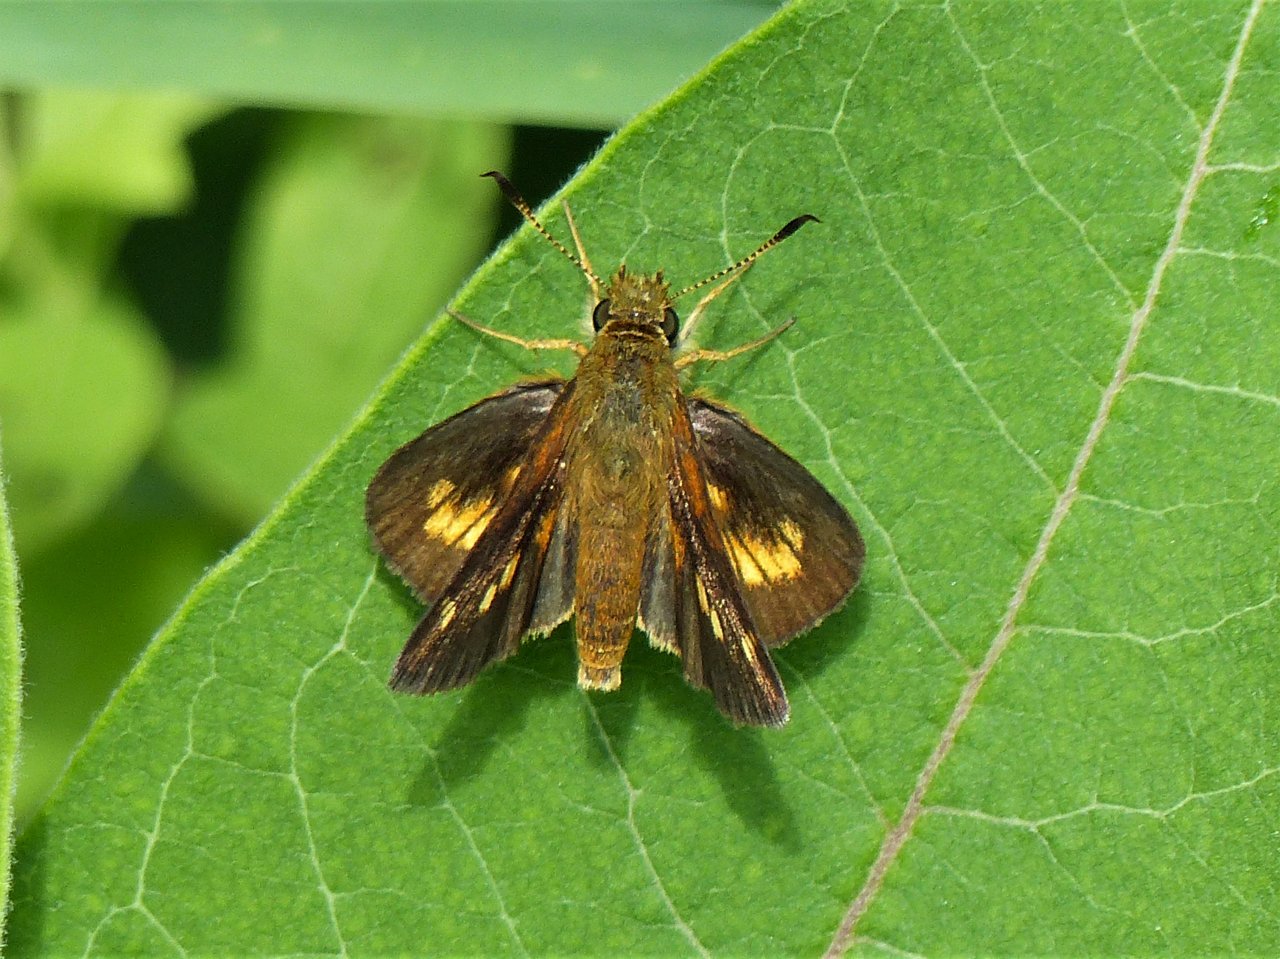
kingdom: Animalia
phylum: Arthropoda
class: Insecta
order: Lepidoptera
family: Hesperiidae
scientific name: Hesperiidae
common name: Skippers
